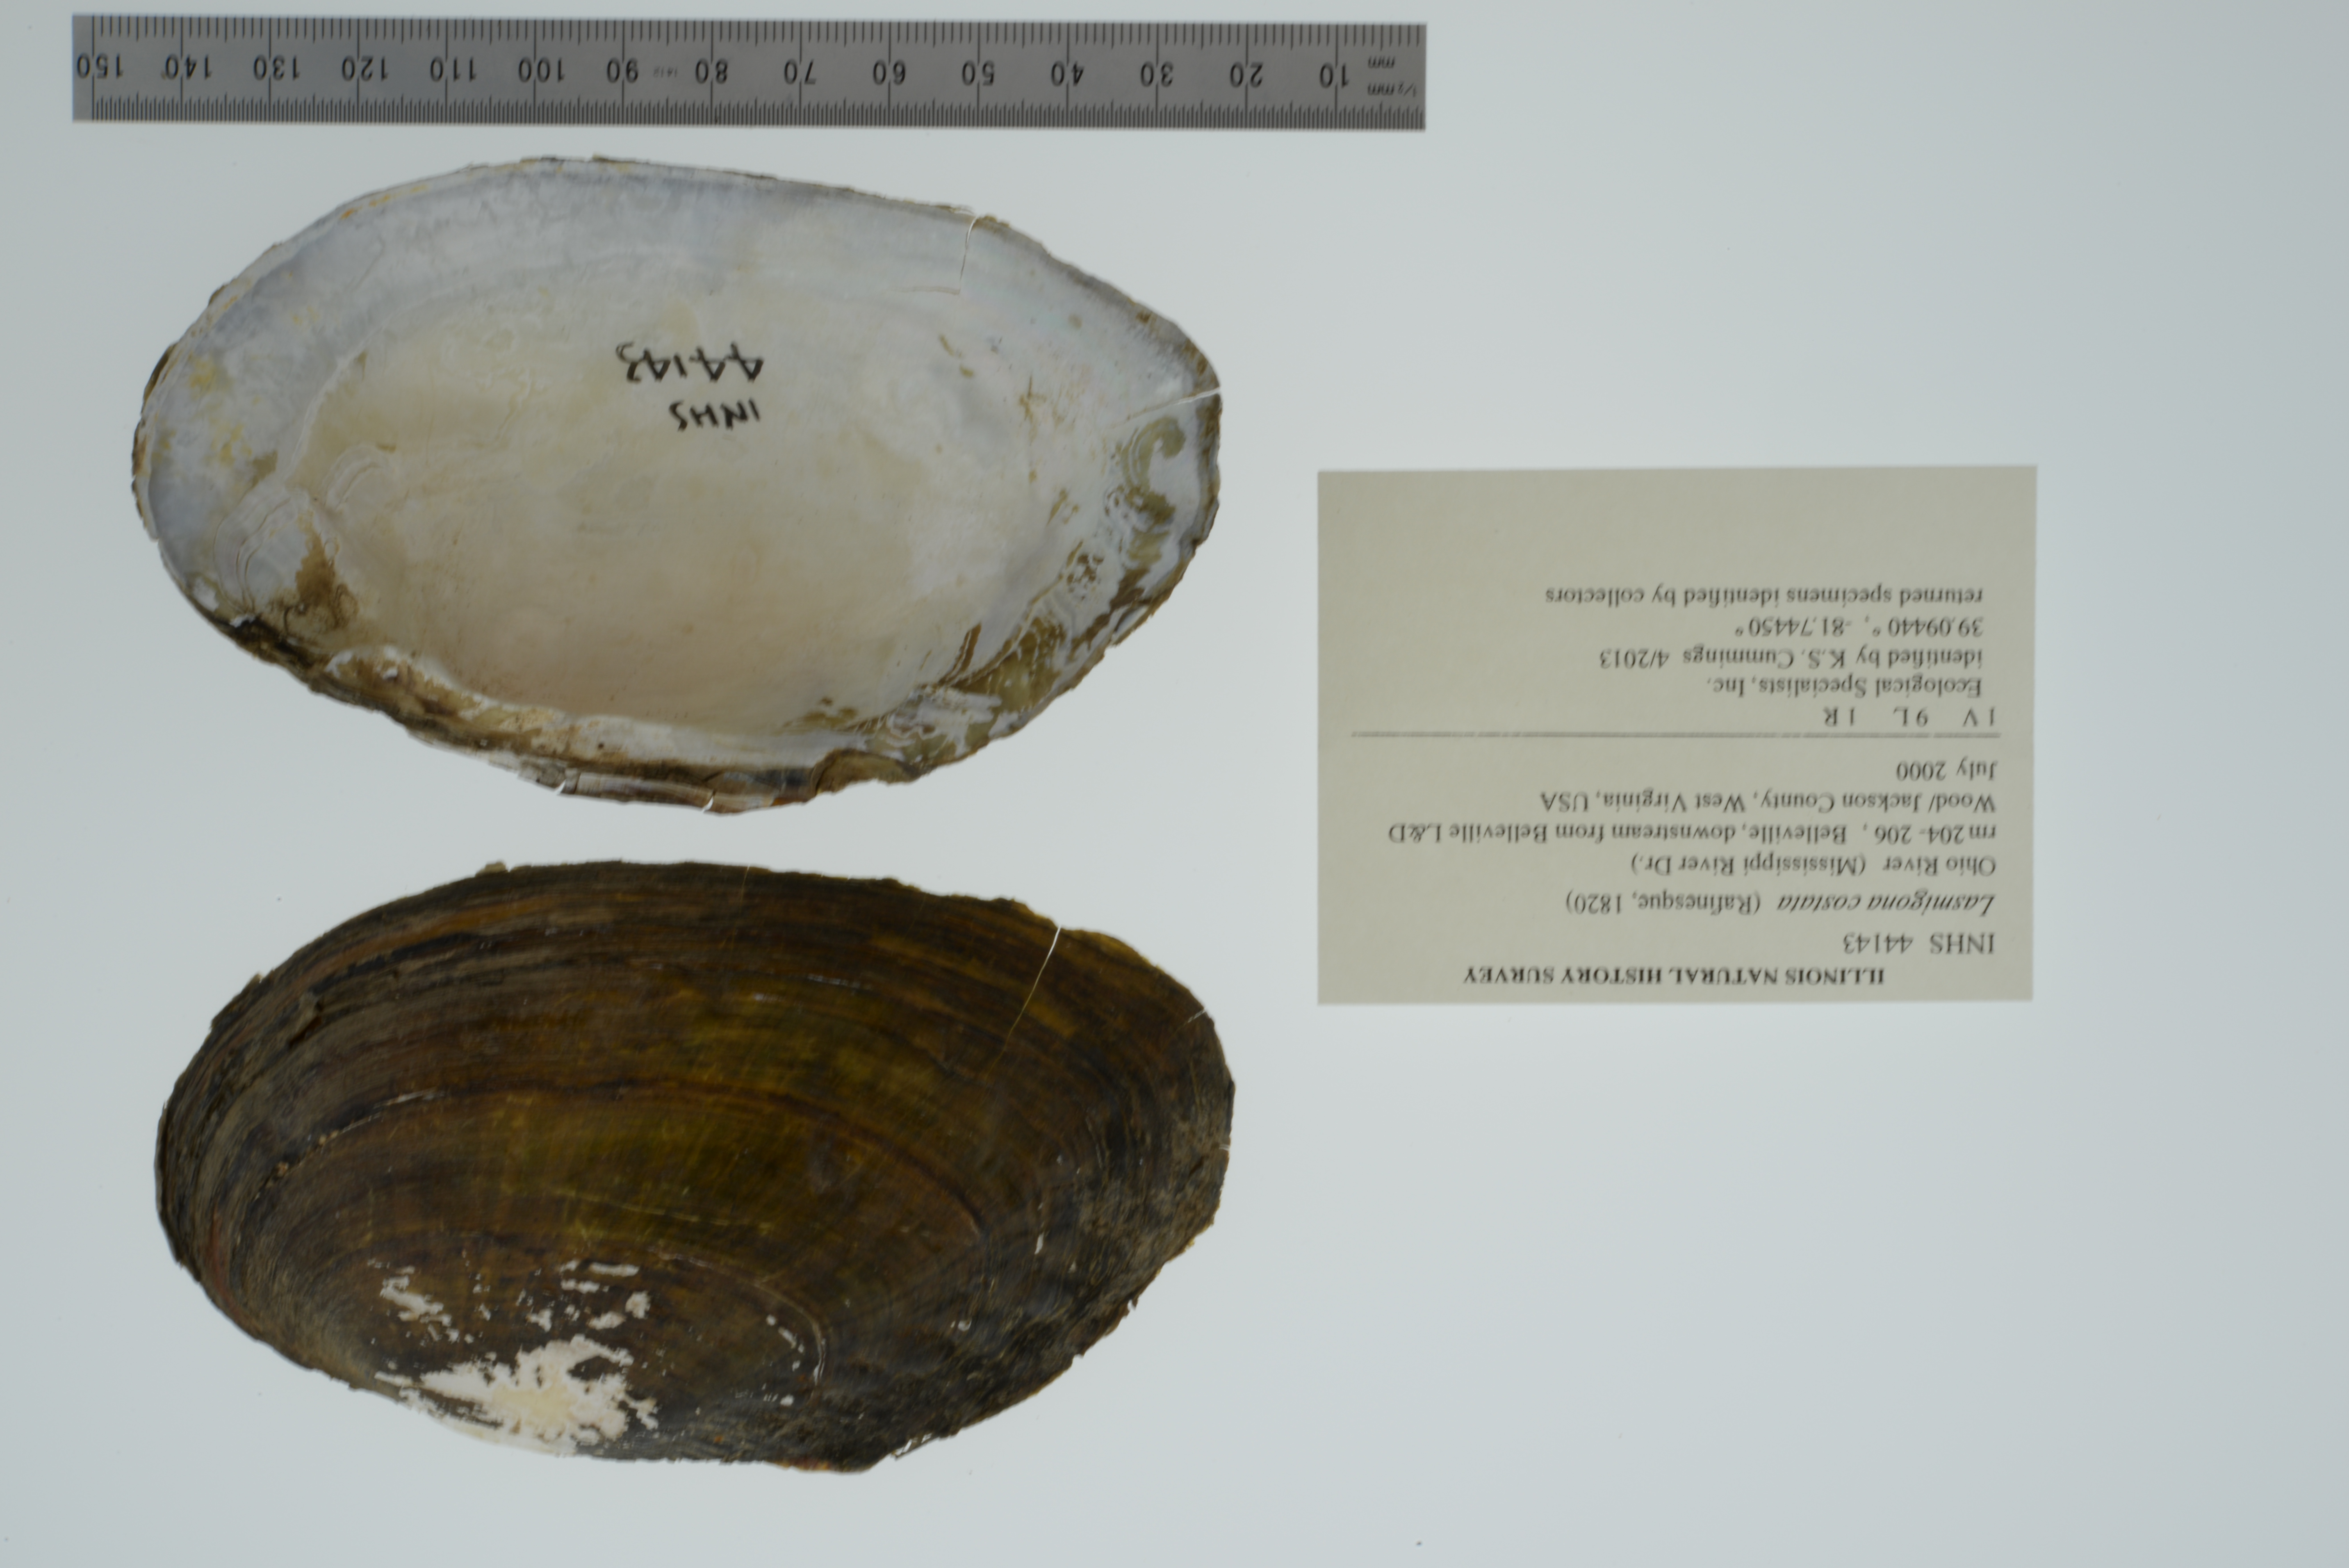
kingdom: Animalia
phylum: Mollusca
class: Bivalvia
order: Unionida
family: Unionidae
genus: Lasmigona
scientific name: Lasmigona costata
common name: Flutedshell
